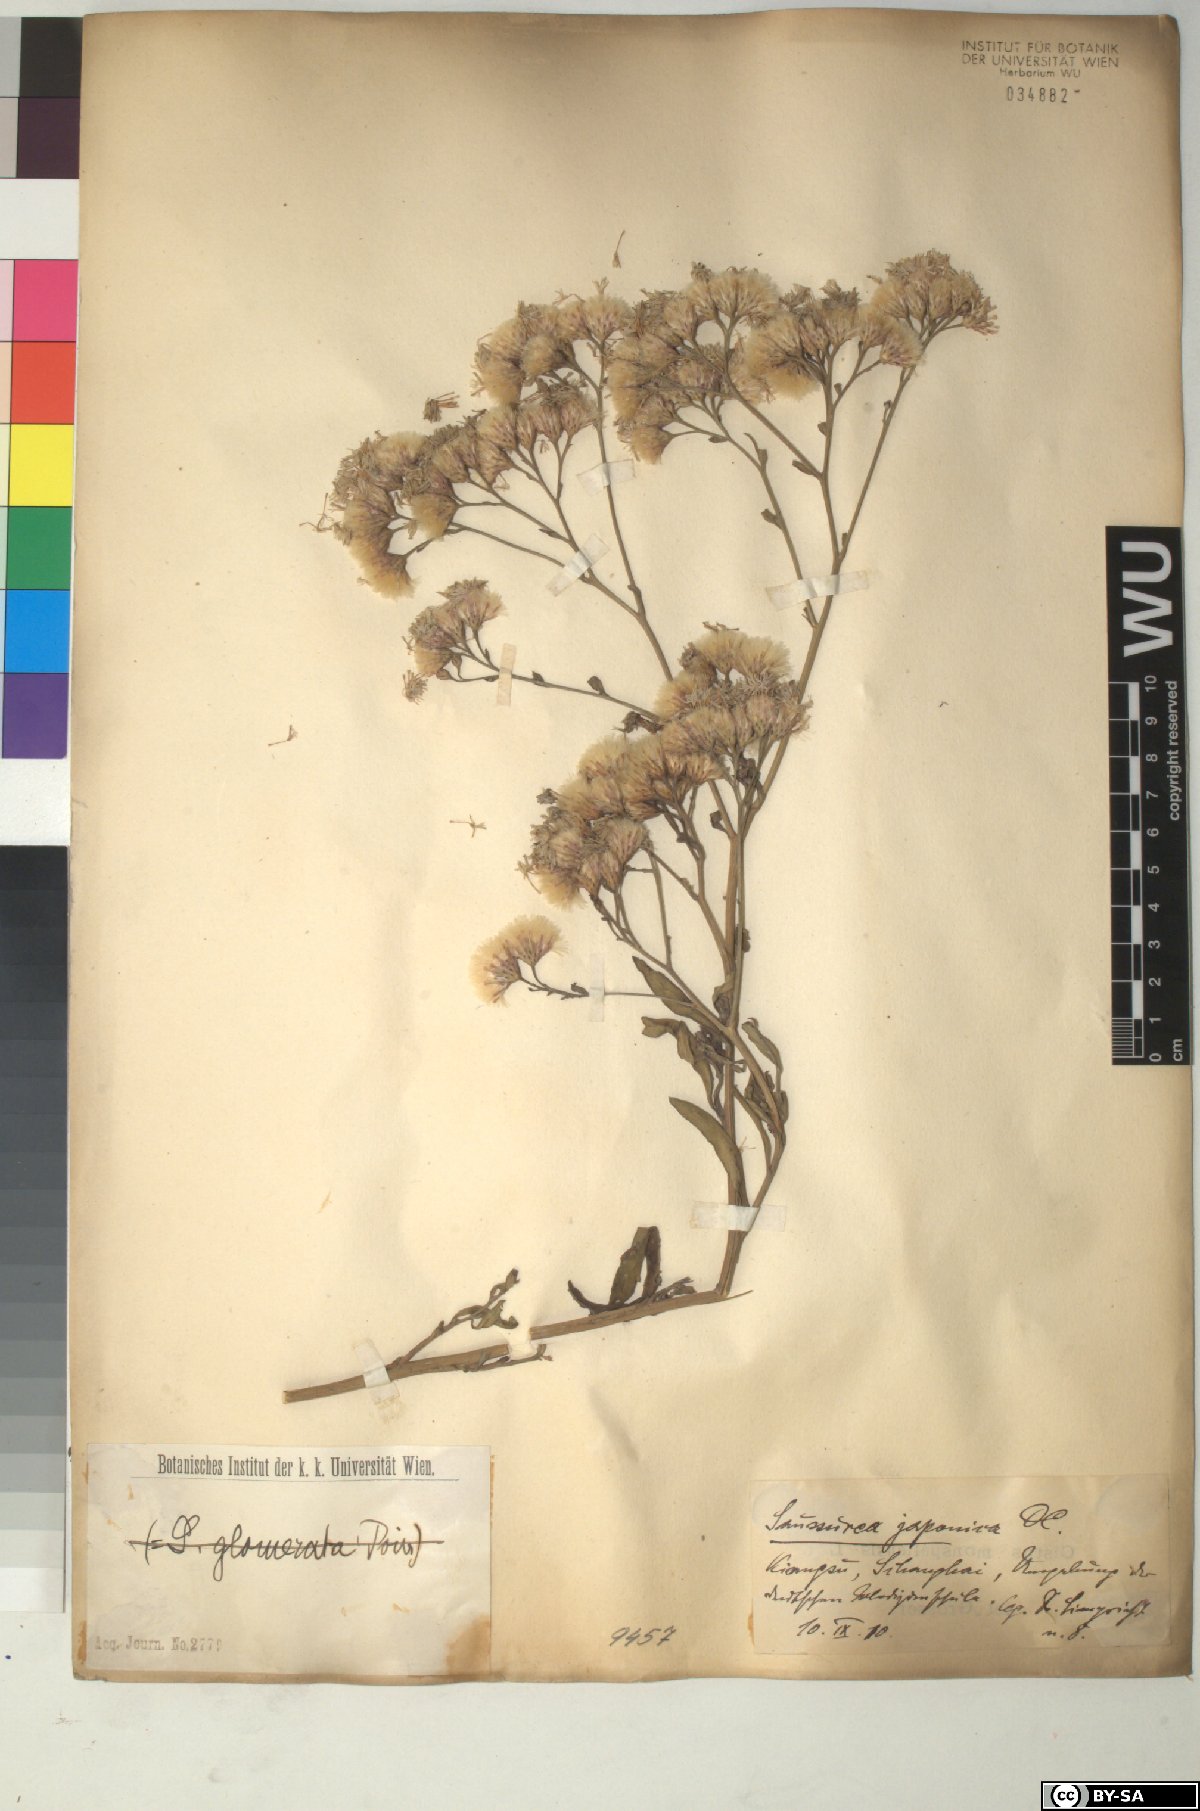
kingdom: Plantae
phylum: Tracheophyta
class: Magnoliopsida
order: Asterales
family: Asteraceae
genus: Saussurea
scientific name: Saussurea japonica
